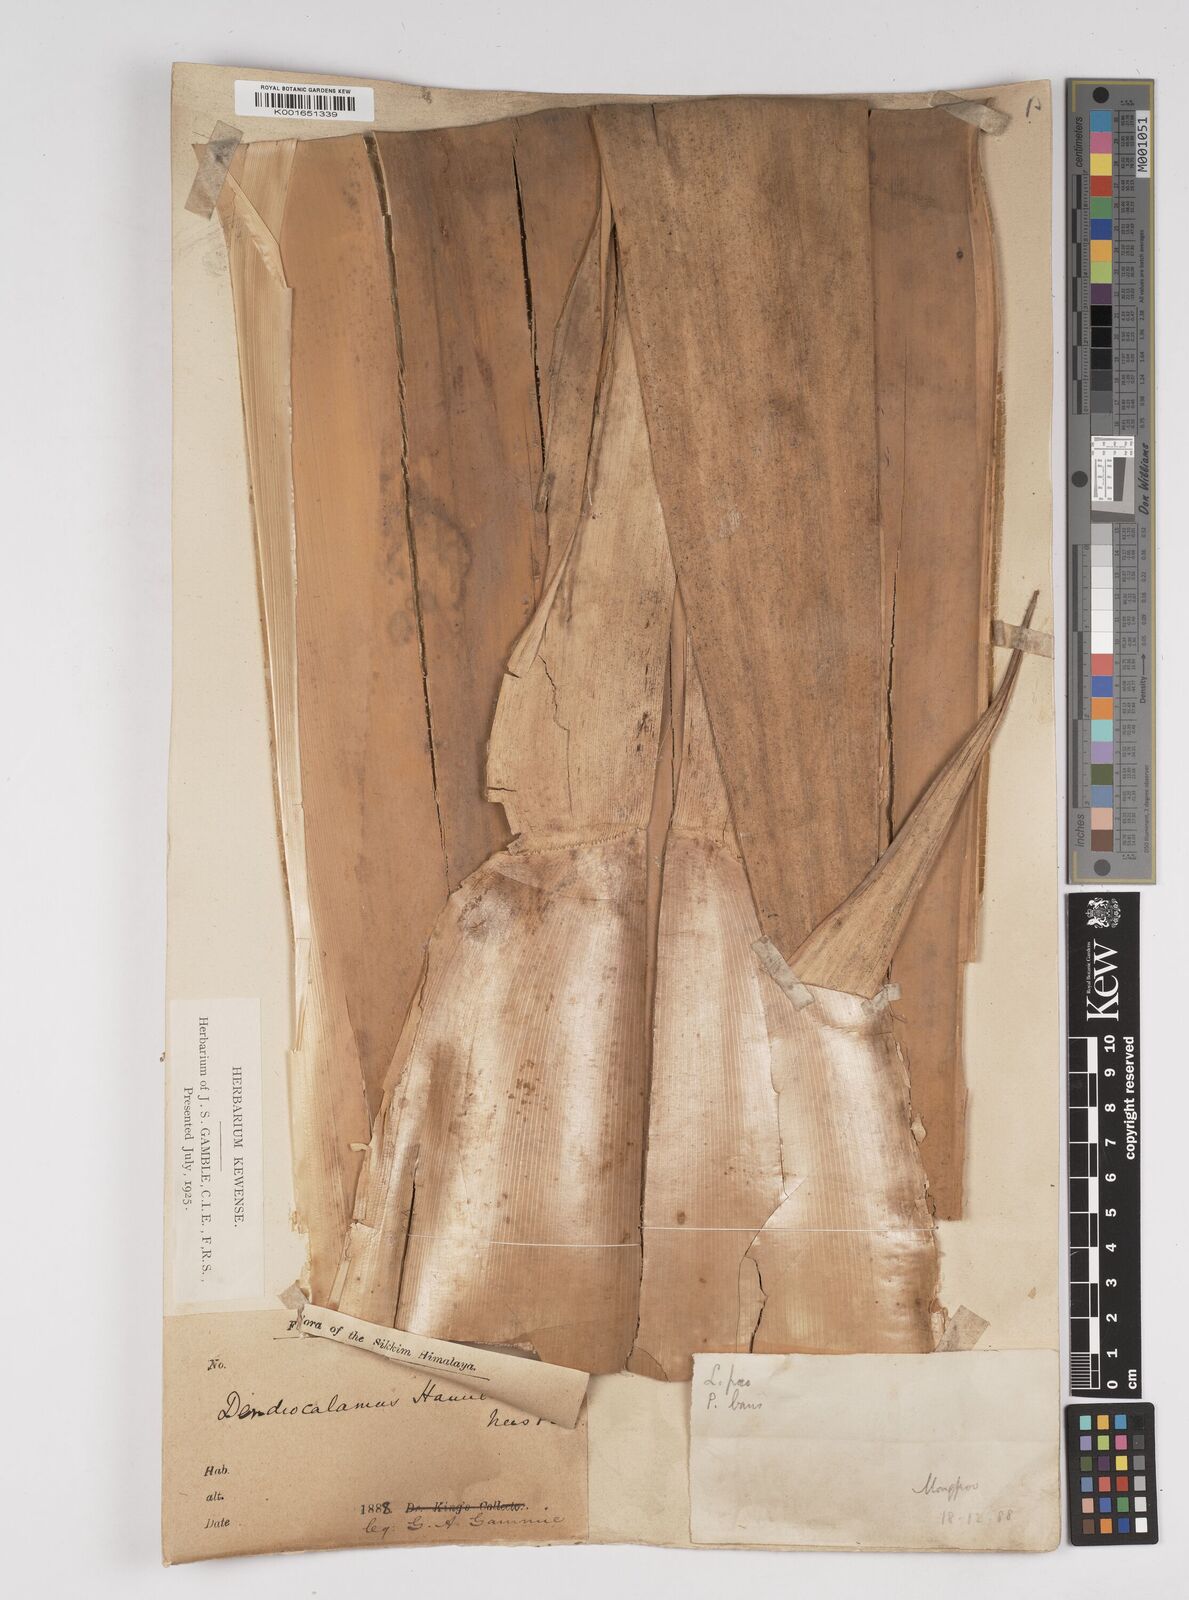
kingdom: Plantae
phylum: Tracheophyta
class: Liliopsida
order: Poales
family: Poaceae
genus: Dendrocalamus
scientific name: Dendrocalamus hamiltonii
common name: Tama bamboo
